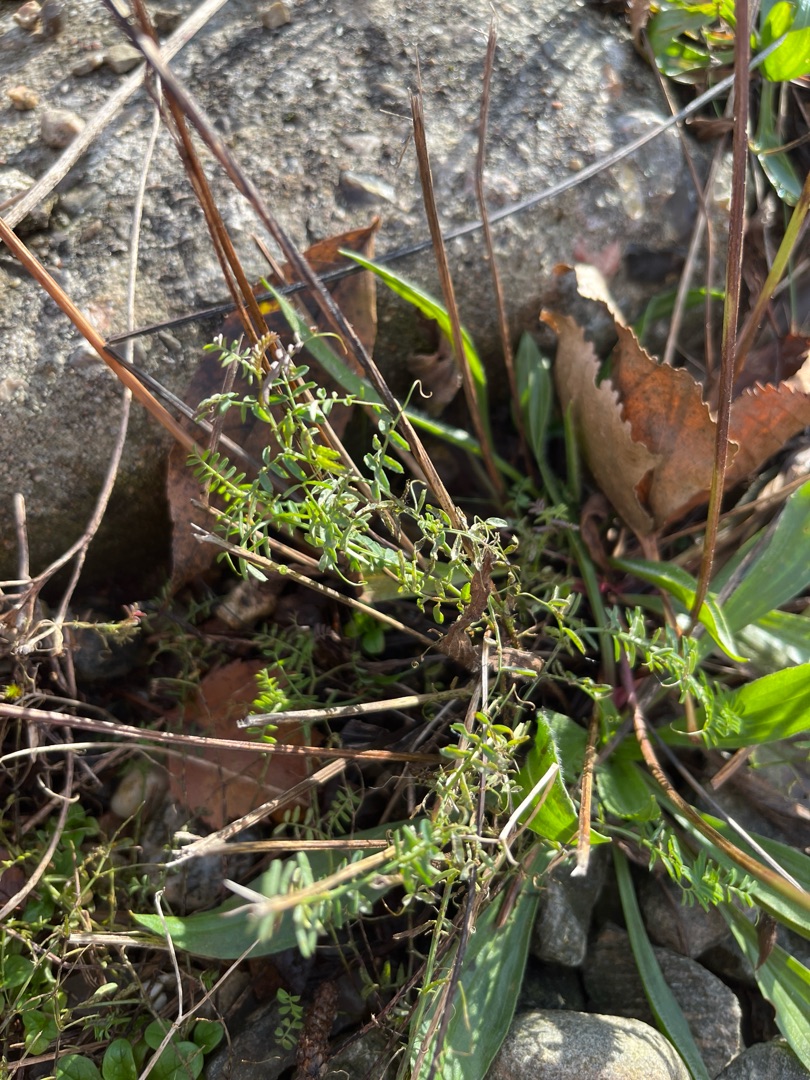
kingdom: Plantae
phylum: Tracheophyta
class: Magnoliopsida
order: Fabales
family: Fabaceae
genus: Vicia
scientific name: Vicia
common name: Vikkeslægten
